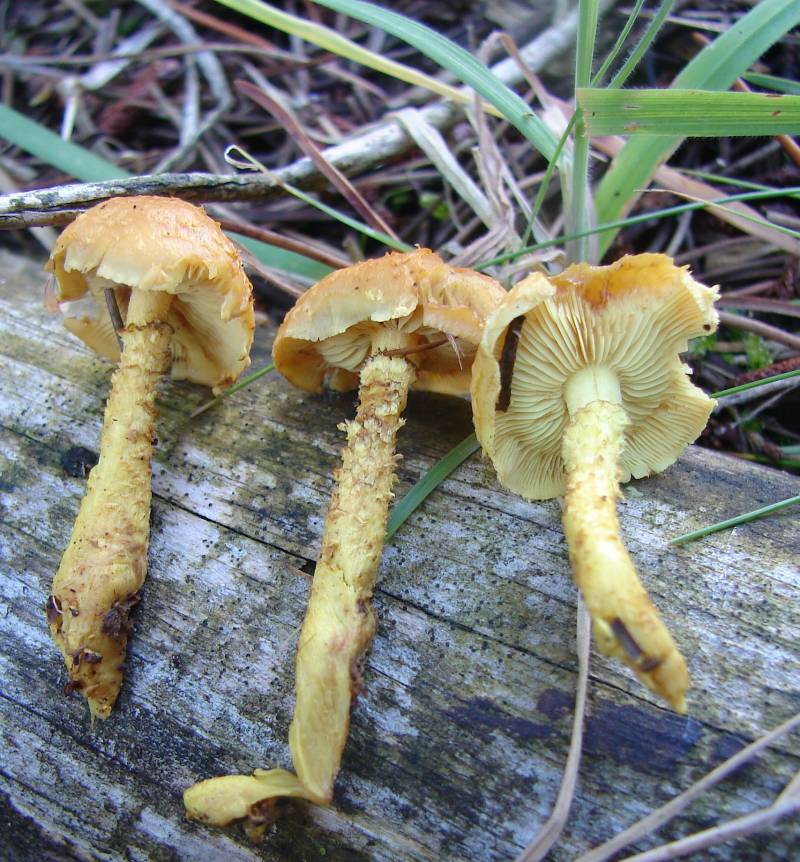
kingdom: Fungi
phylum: Basidiomycota
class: Agaricomycetes
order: Agaricales
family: Strophariaceae
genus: Pholiota
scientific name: Pholiota flammans
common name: flamme-skælhat
